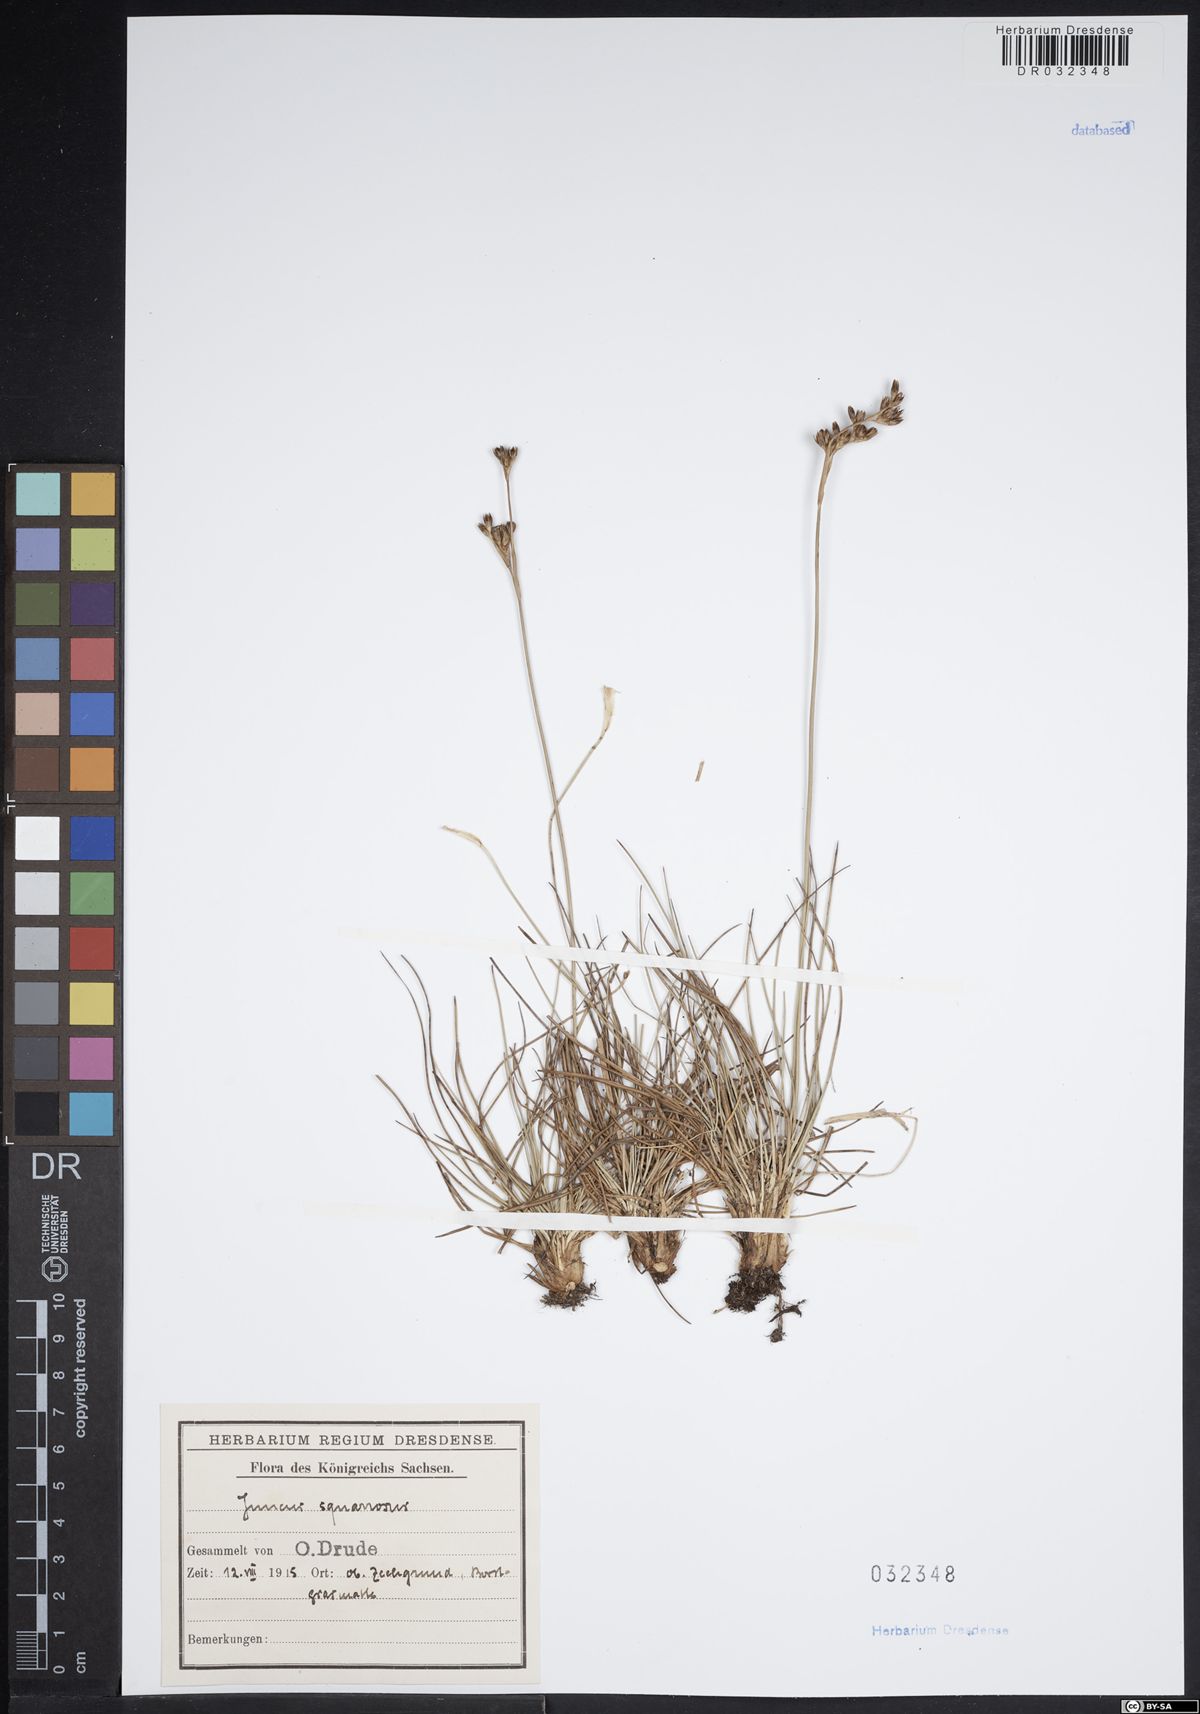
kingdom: Plantae
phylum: Tracheophyta
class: Liliopsida
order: Poales
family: Juncaceae
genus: Juncus
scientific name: Juncus squarrosus
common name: Heath rush
